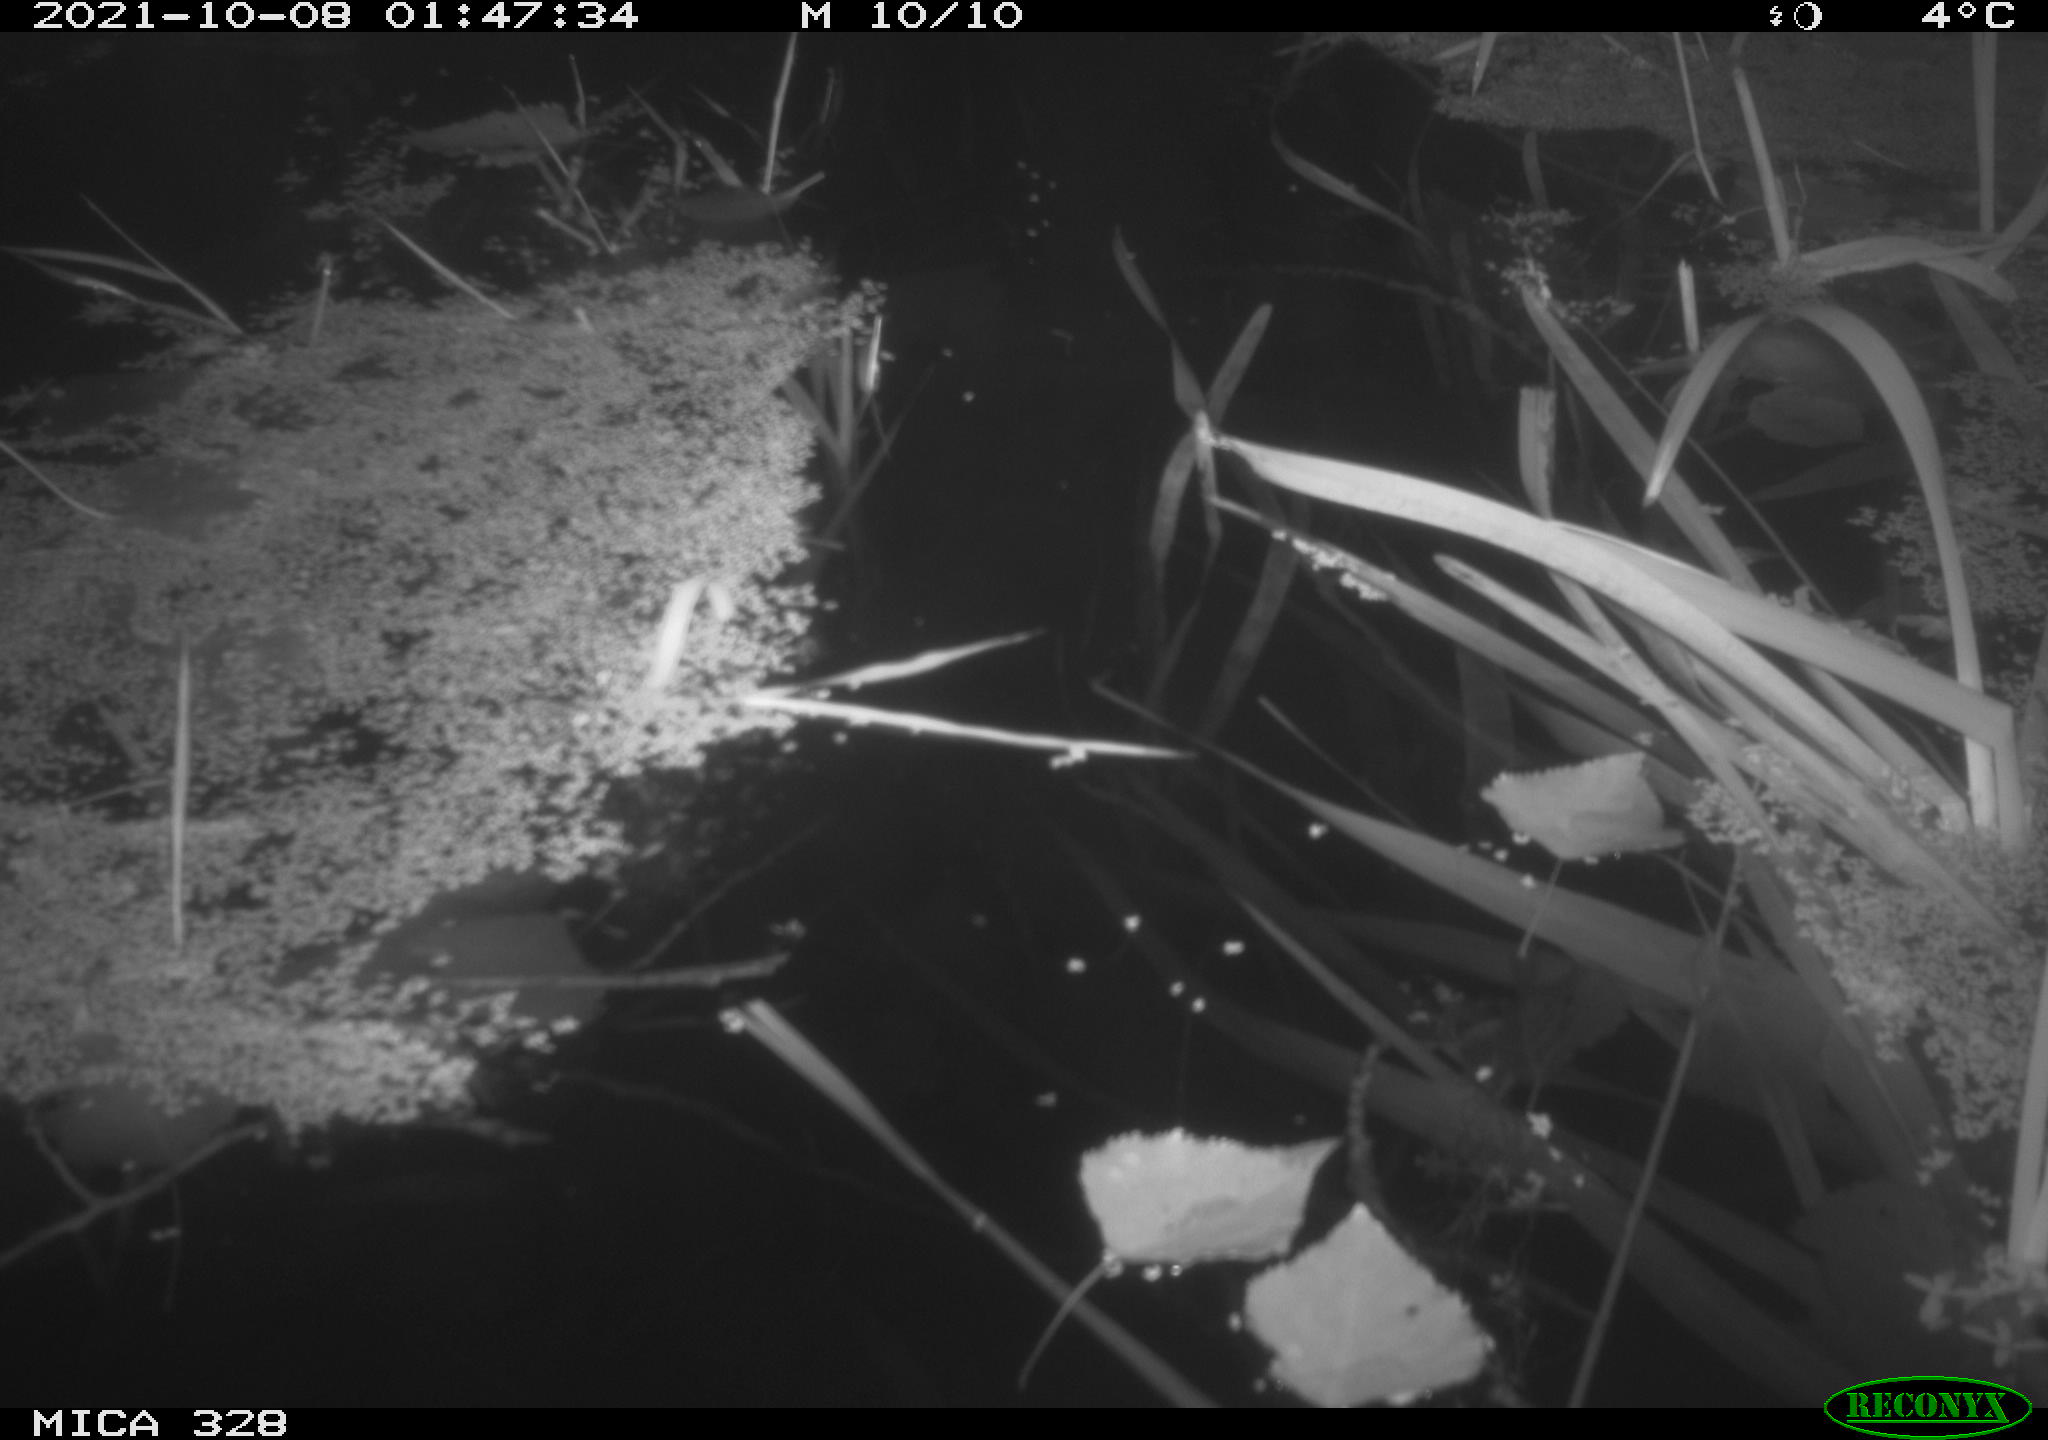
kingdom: Animalia
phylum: Chordata
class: Mammalia
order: Rodentia
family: Cricetidae
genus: Ondatra
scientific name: Ondatra zibethicus
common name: Muskrat
